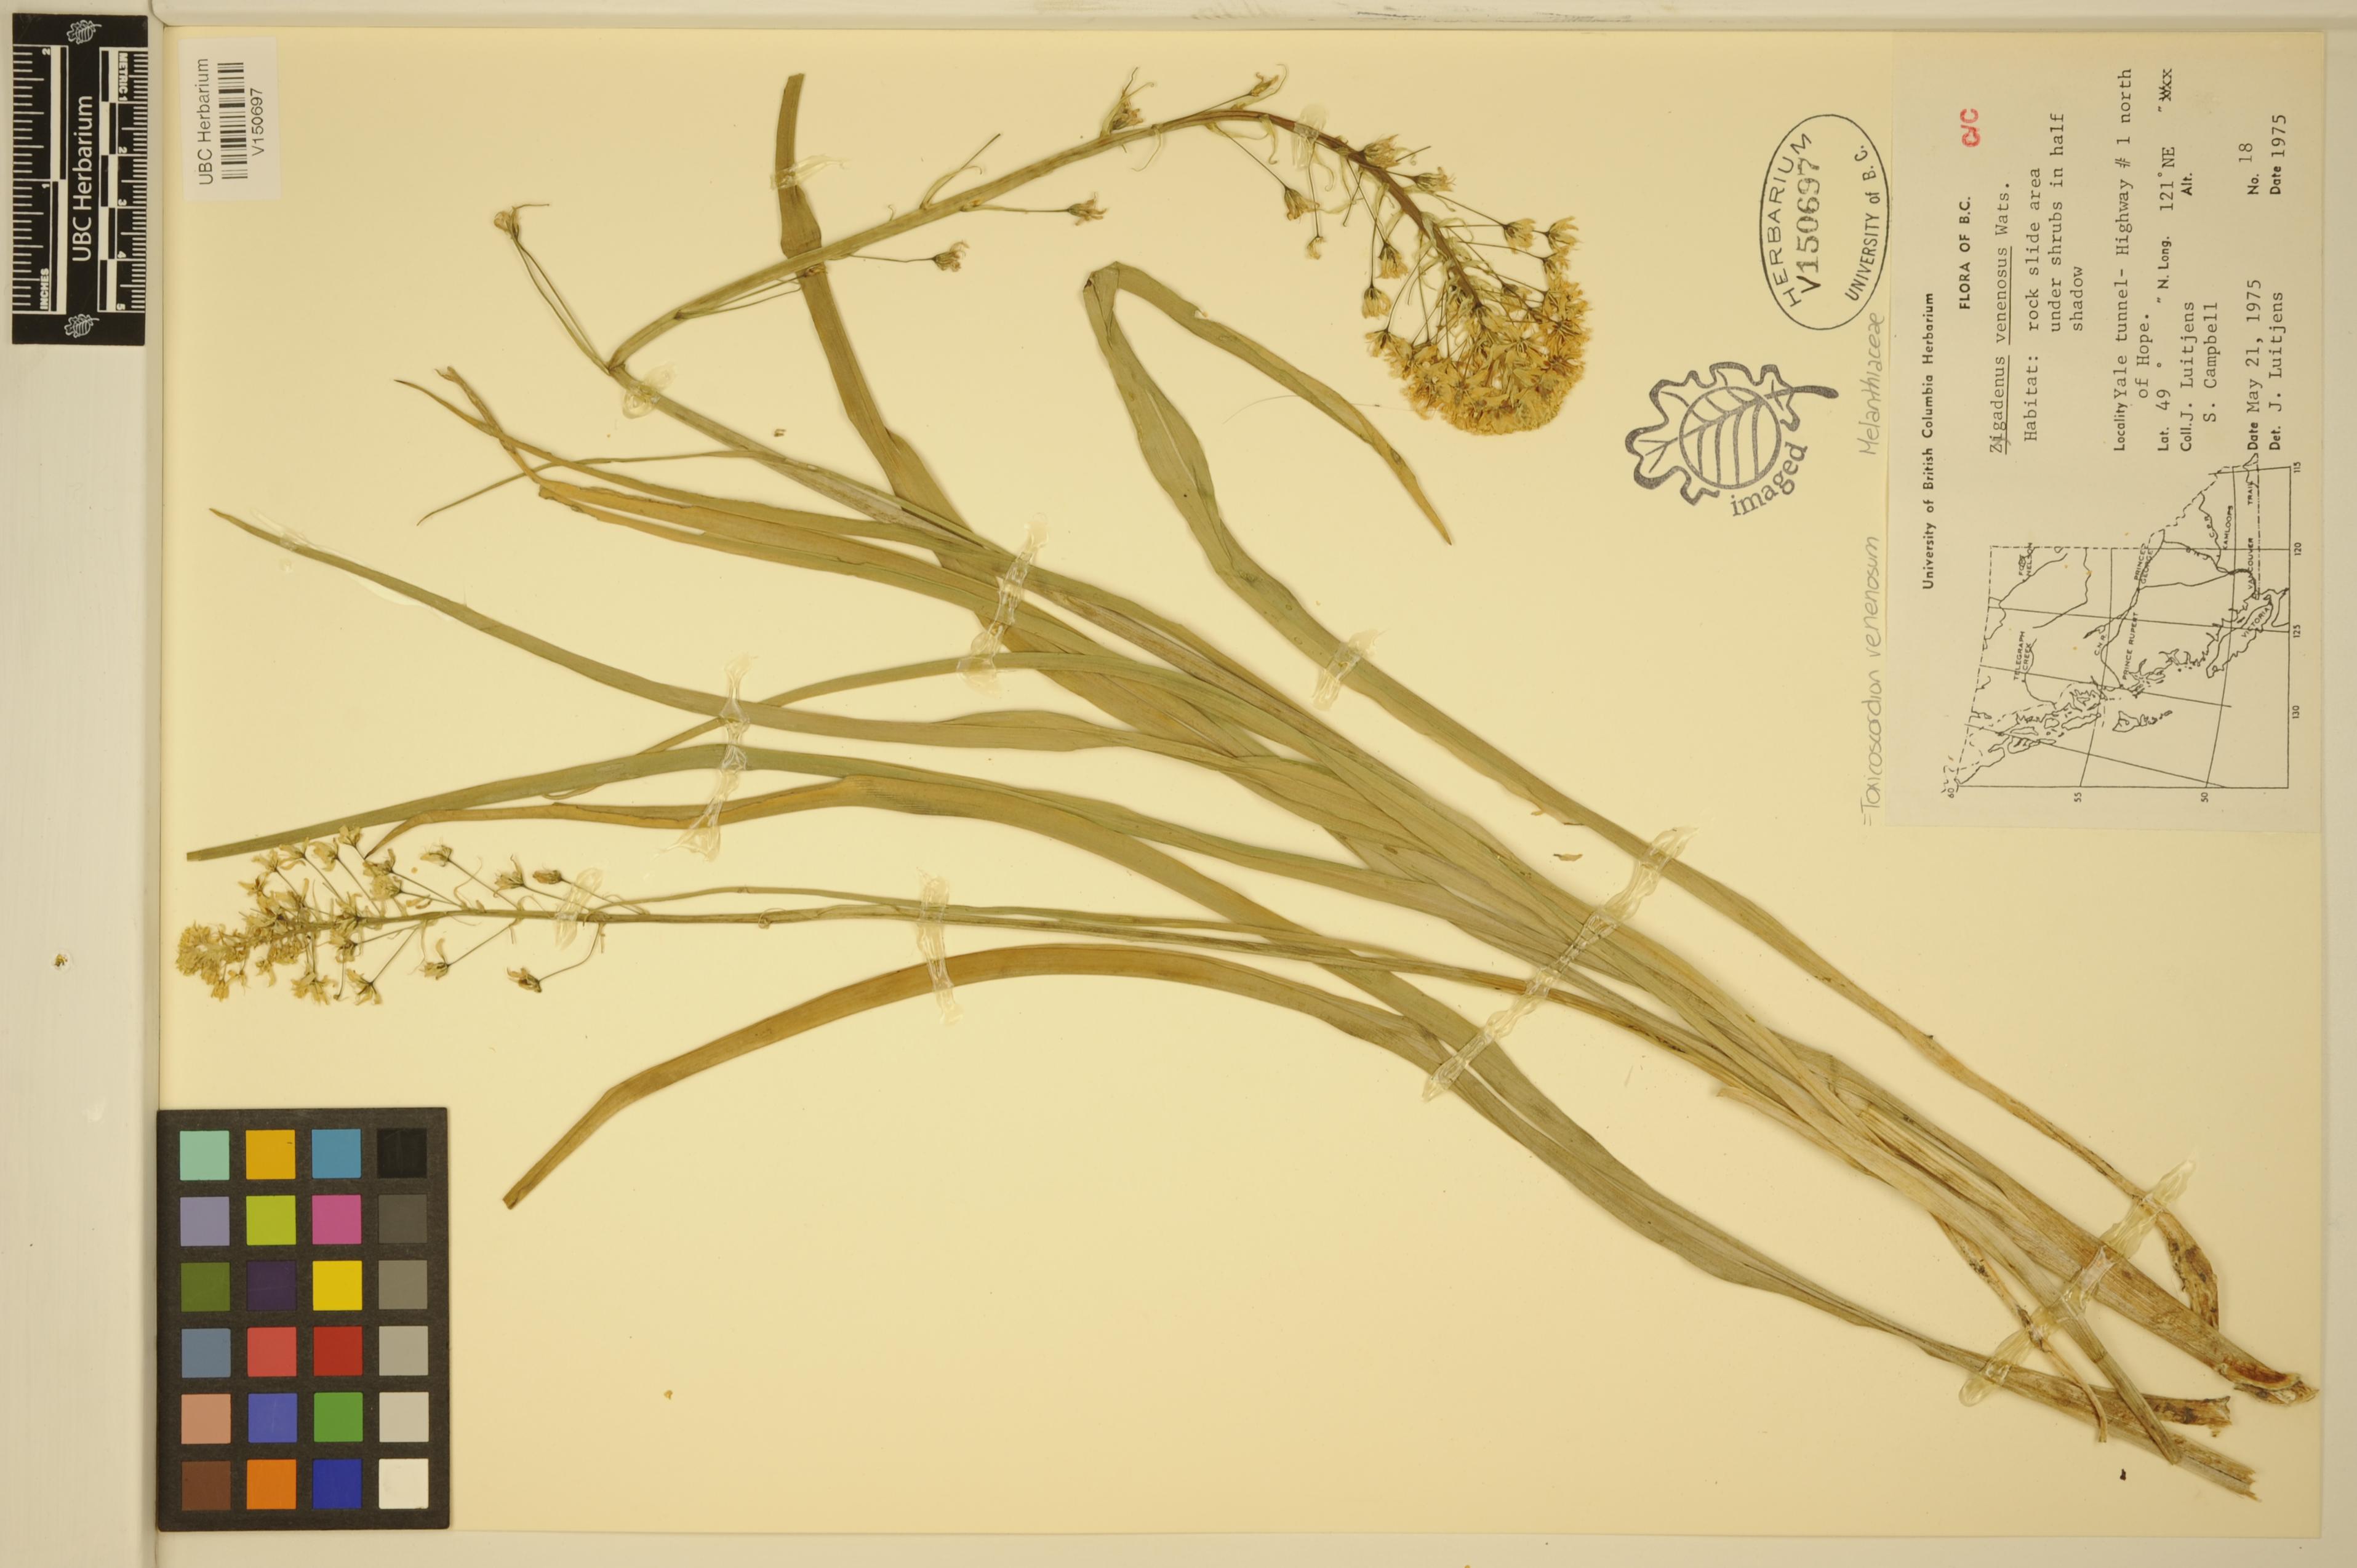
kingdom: Plantae
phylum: Tracheophyta
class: Liliopsida
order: Liliales
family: Melanthiaceae
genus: Toxicoscordion
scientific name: Toxicoscordion venenosum
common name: Meadow death camas
